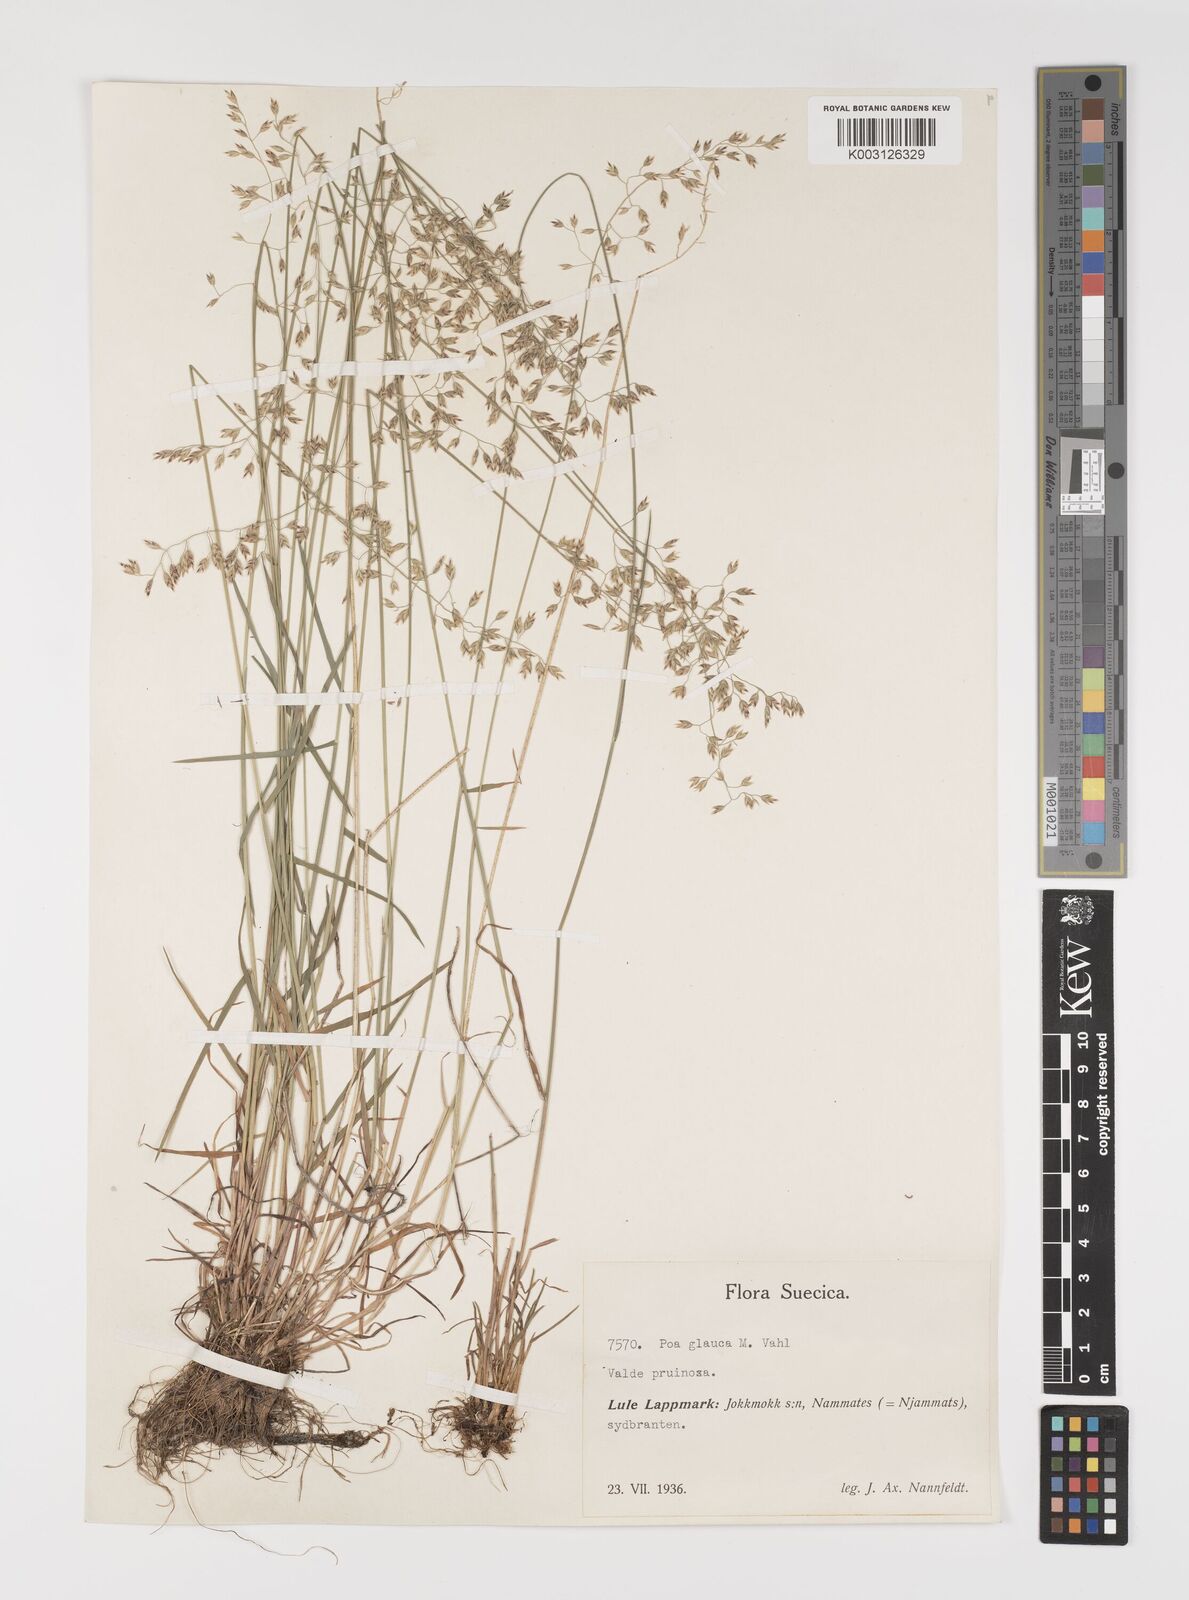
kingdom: Plantae
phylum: Tracheophyta
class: Liliopsida
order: Poales
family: Poaceae
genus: Poa
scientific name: Poa glauca
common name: Glaucous bluegrass
